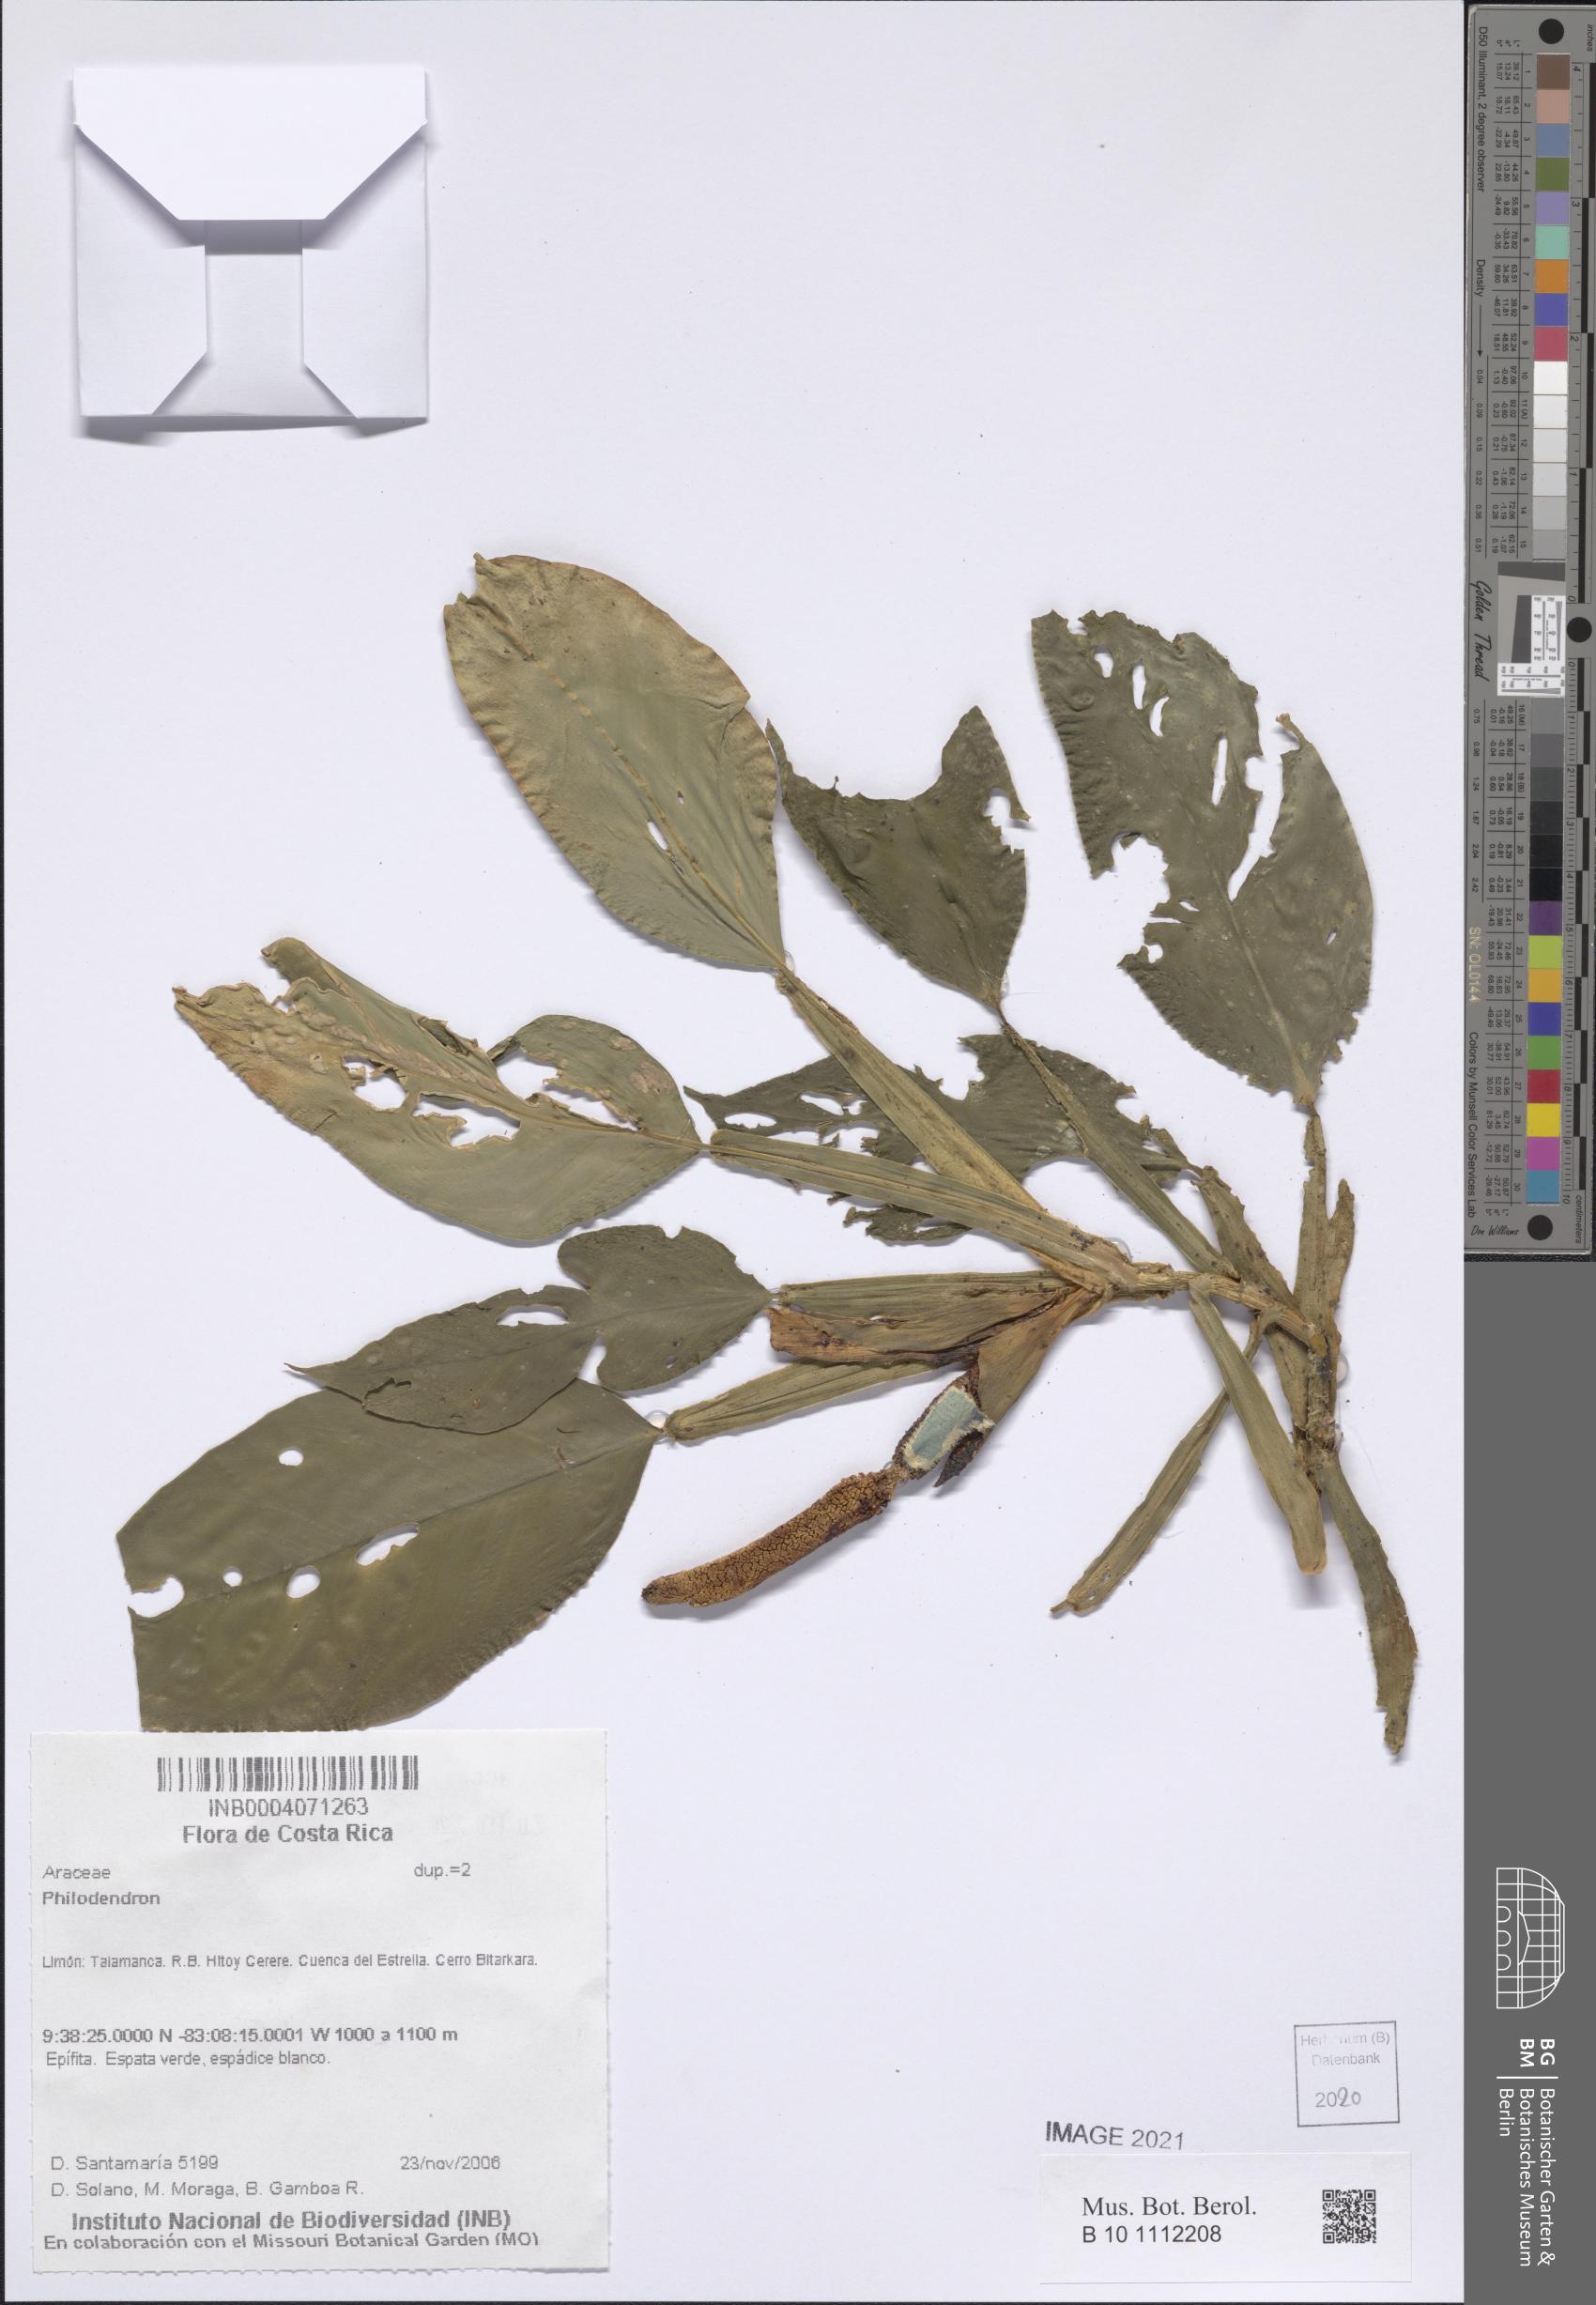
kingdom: Plantae
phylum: Tracheophyta
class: Liliopsida
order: Alismatales
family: Araceae
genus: Philodendron
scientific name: Philodendron
